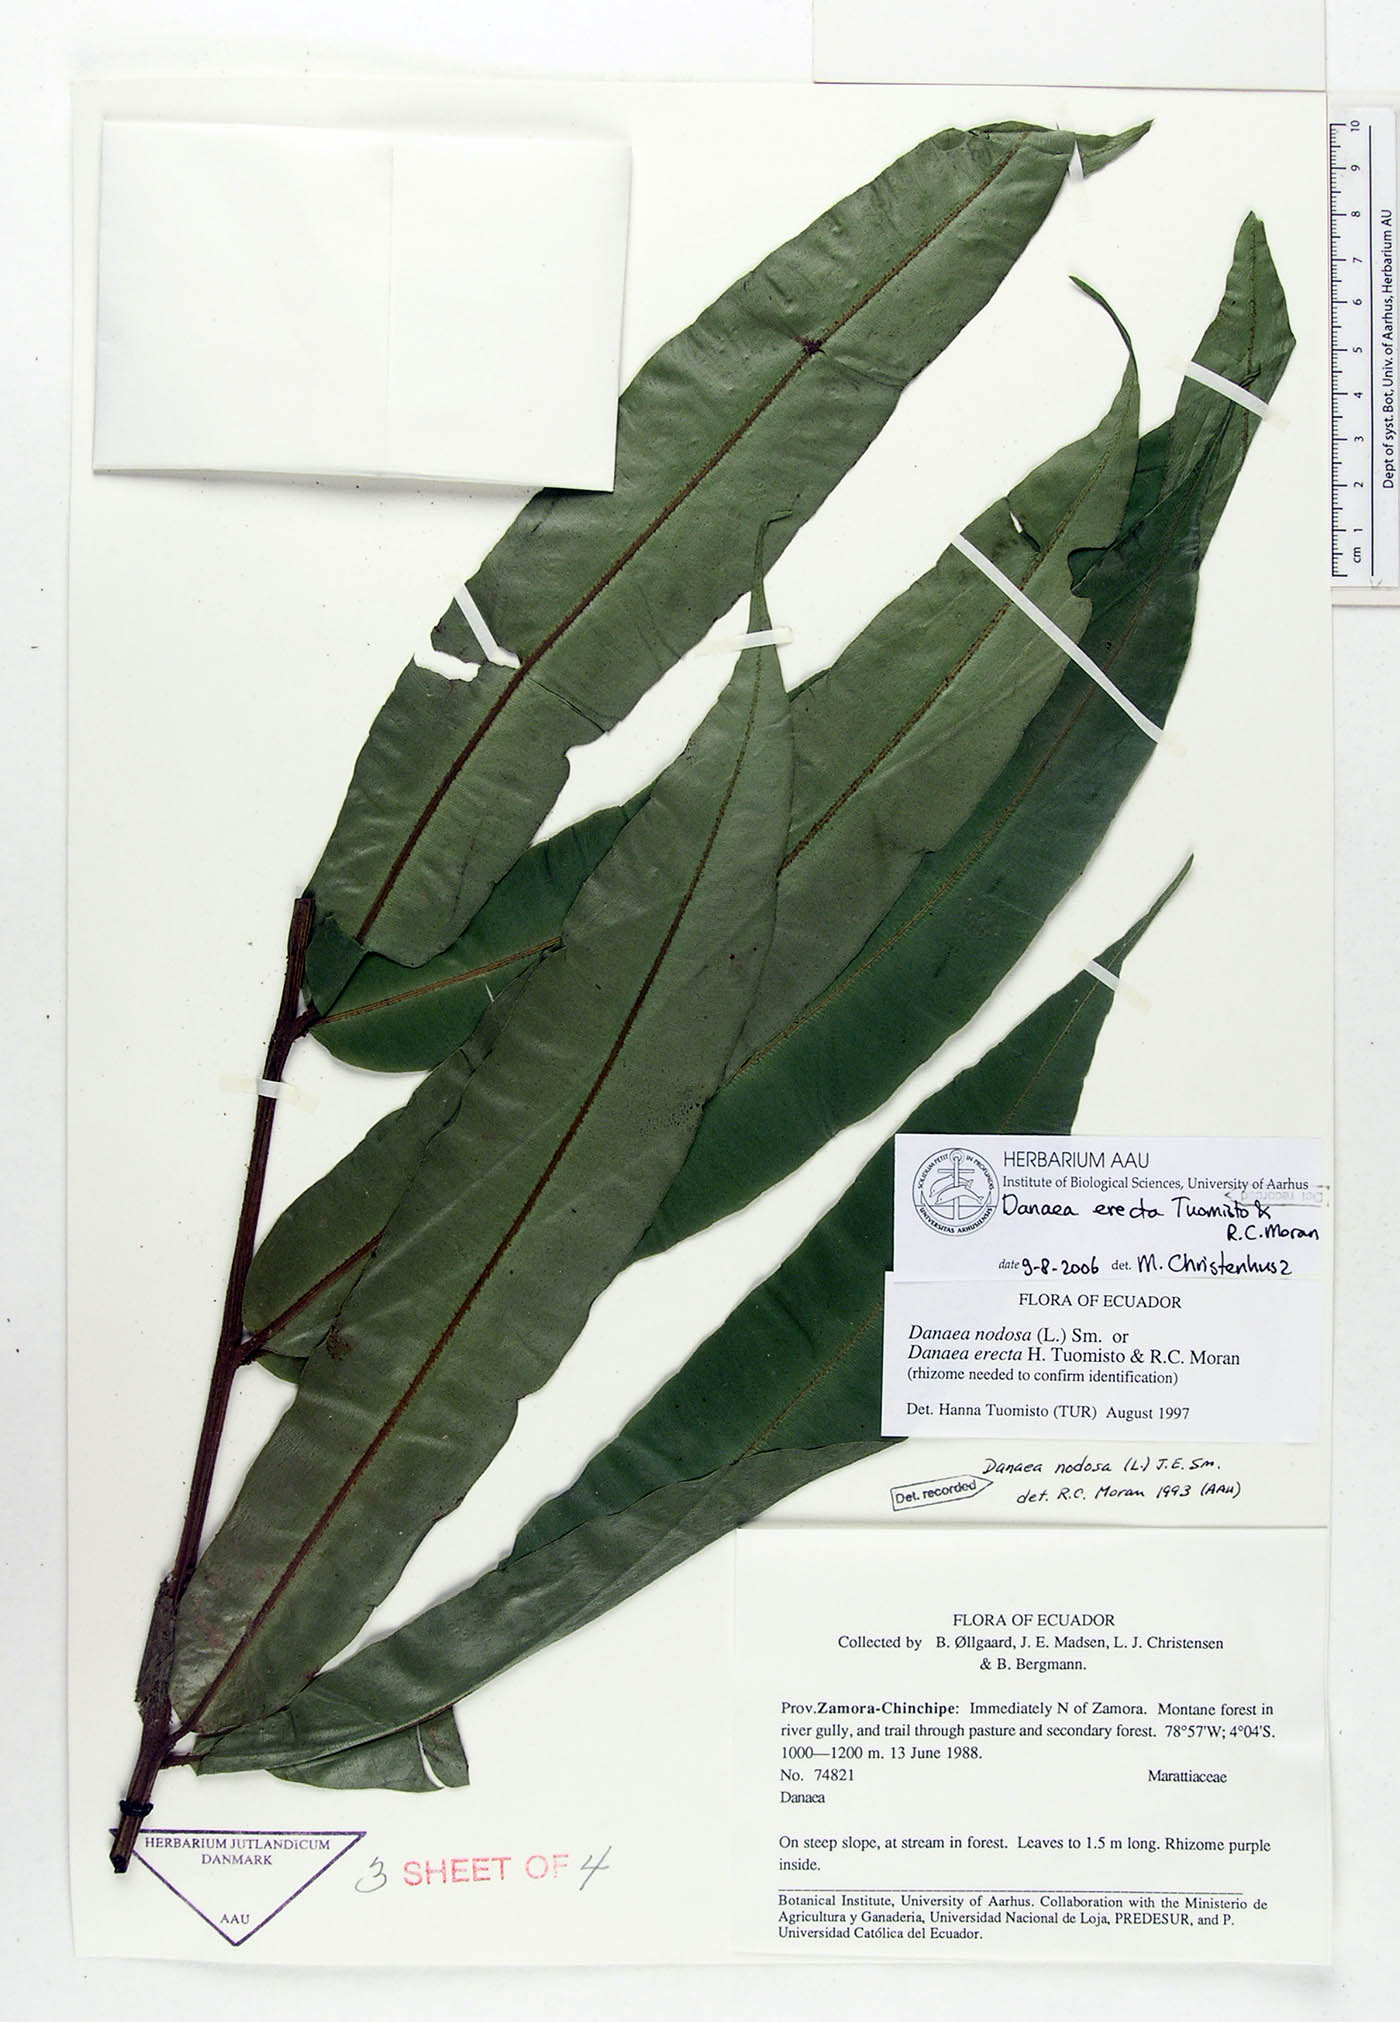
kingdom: Plantae
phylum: Tracheophyta
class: Polypodiopsida
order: Marattiales
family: Marattiaceae
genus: Danaea
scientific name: Danaea erecta
